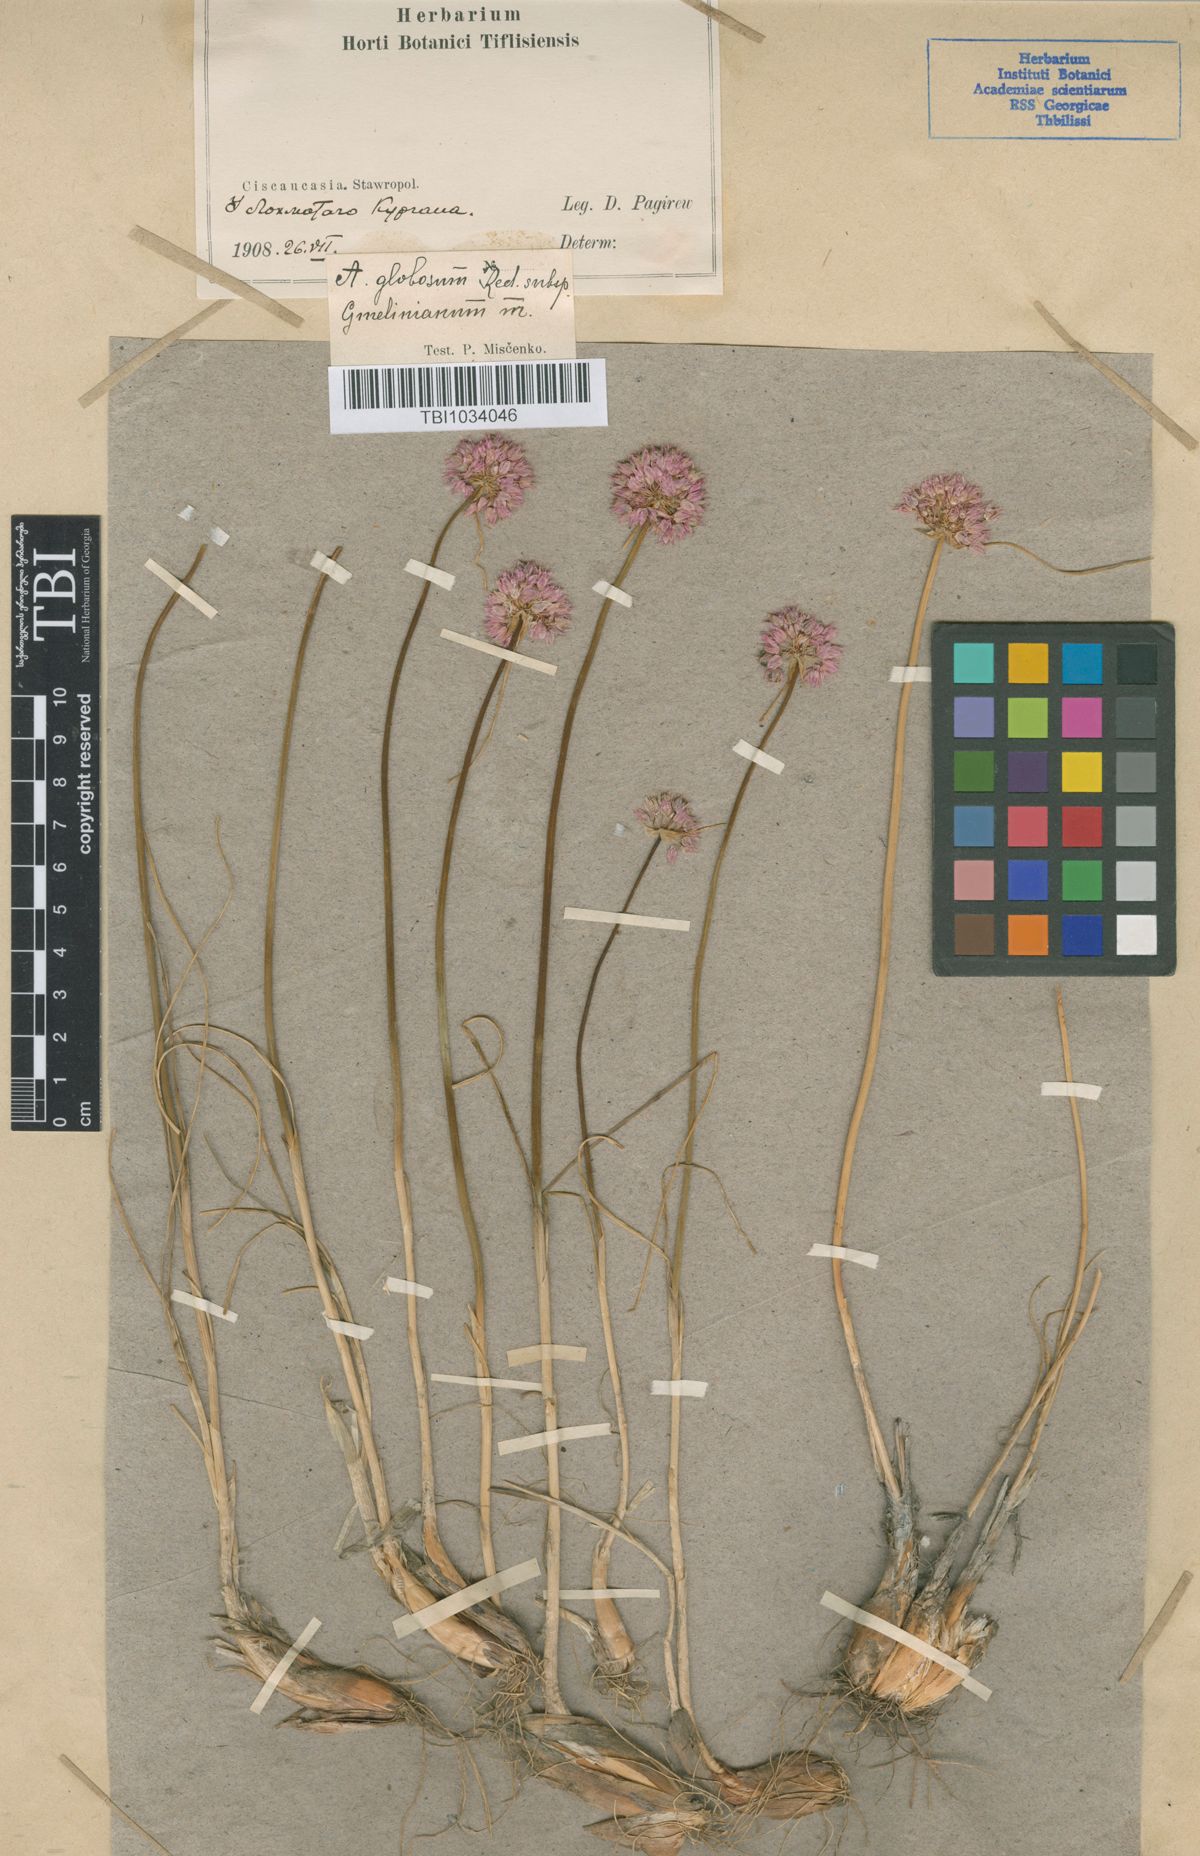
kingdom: Plantae
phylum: Tracheophyta
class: Liliopsida
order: Asparagales
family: Amaryllidaceae
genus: Allium
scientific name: Allium saxatile
